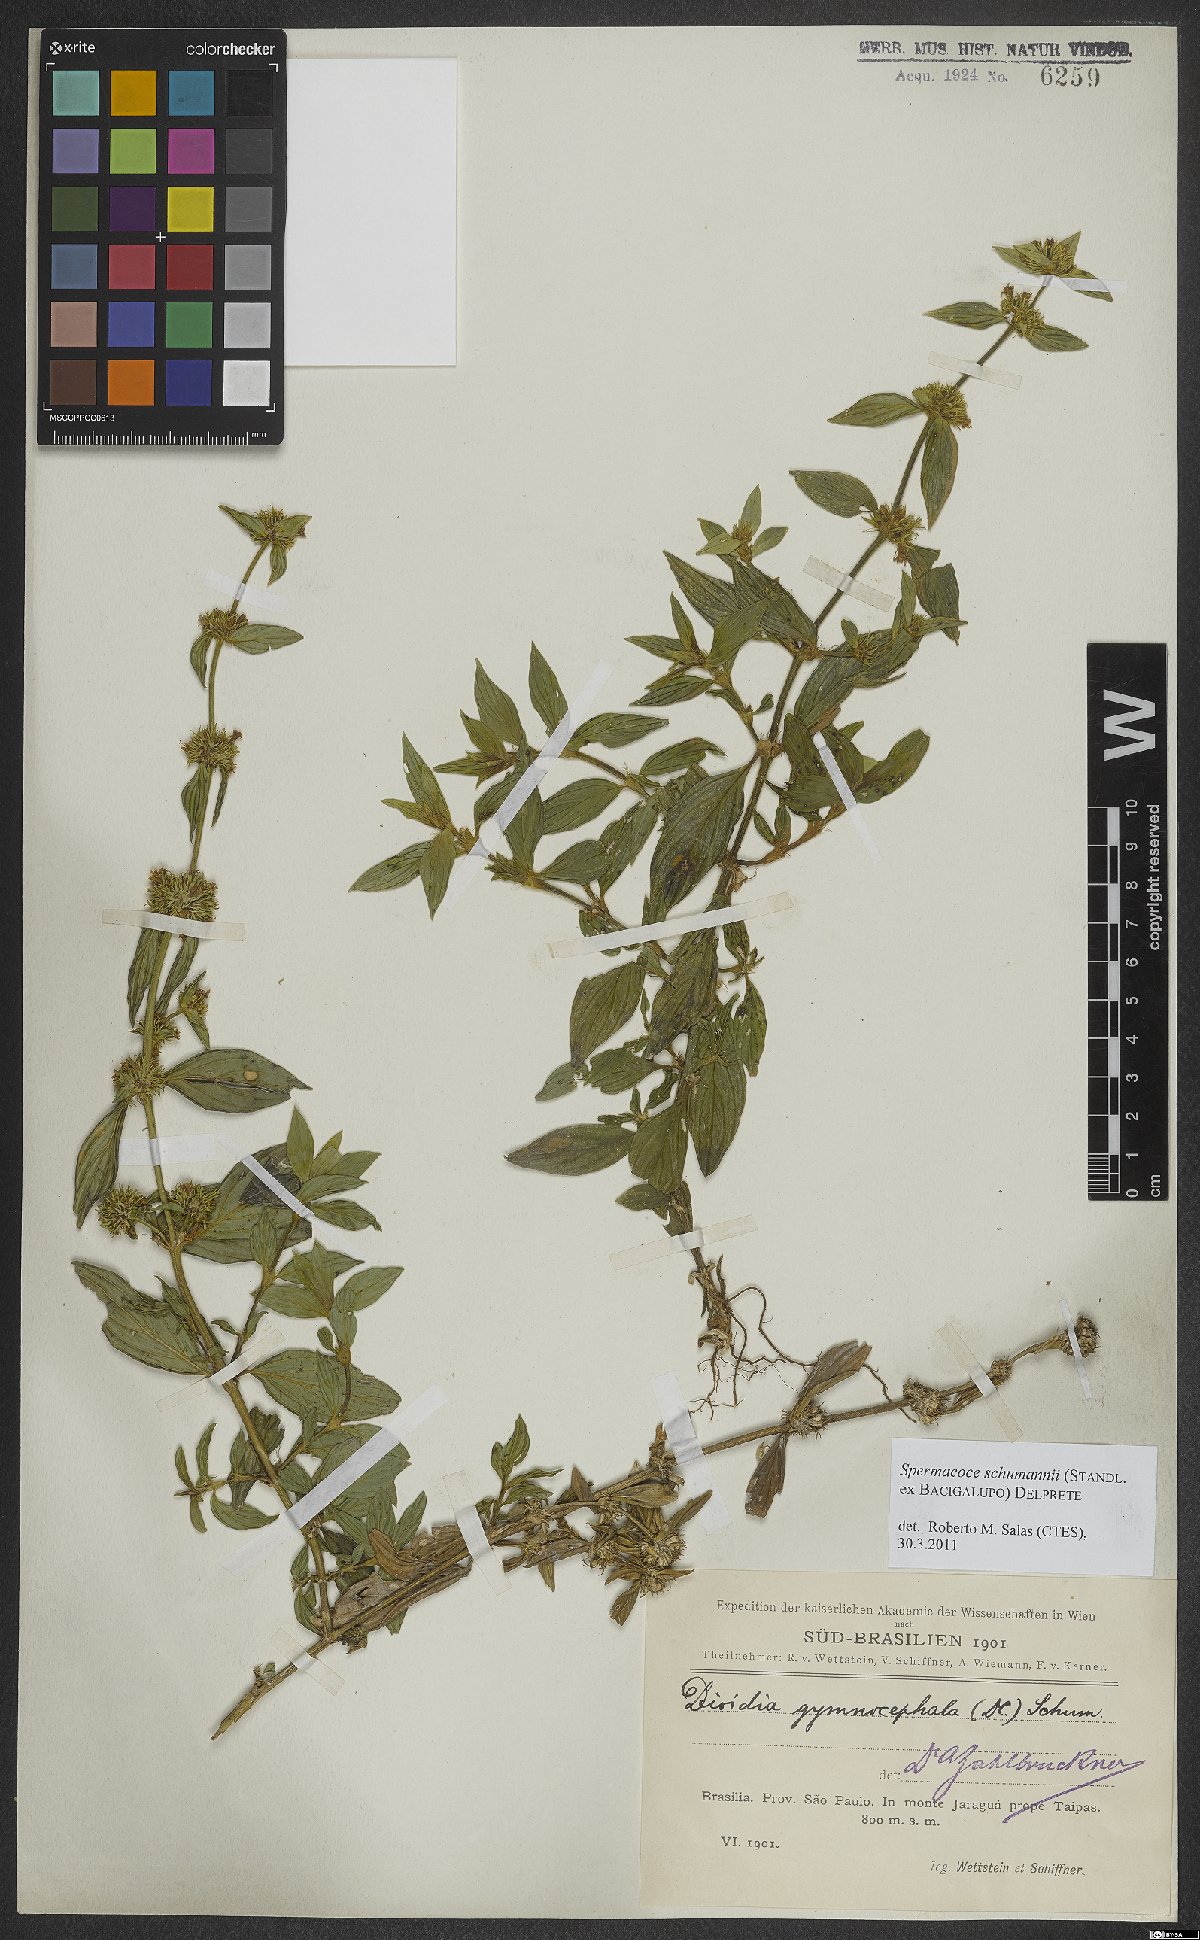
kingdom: Plantae
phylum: Tracheophyta
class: Magnoliopsida
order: Gentianales
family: Rubiaceae
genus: Spermacoce
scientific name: Spermacoce schumannii
